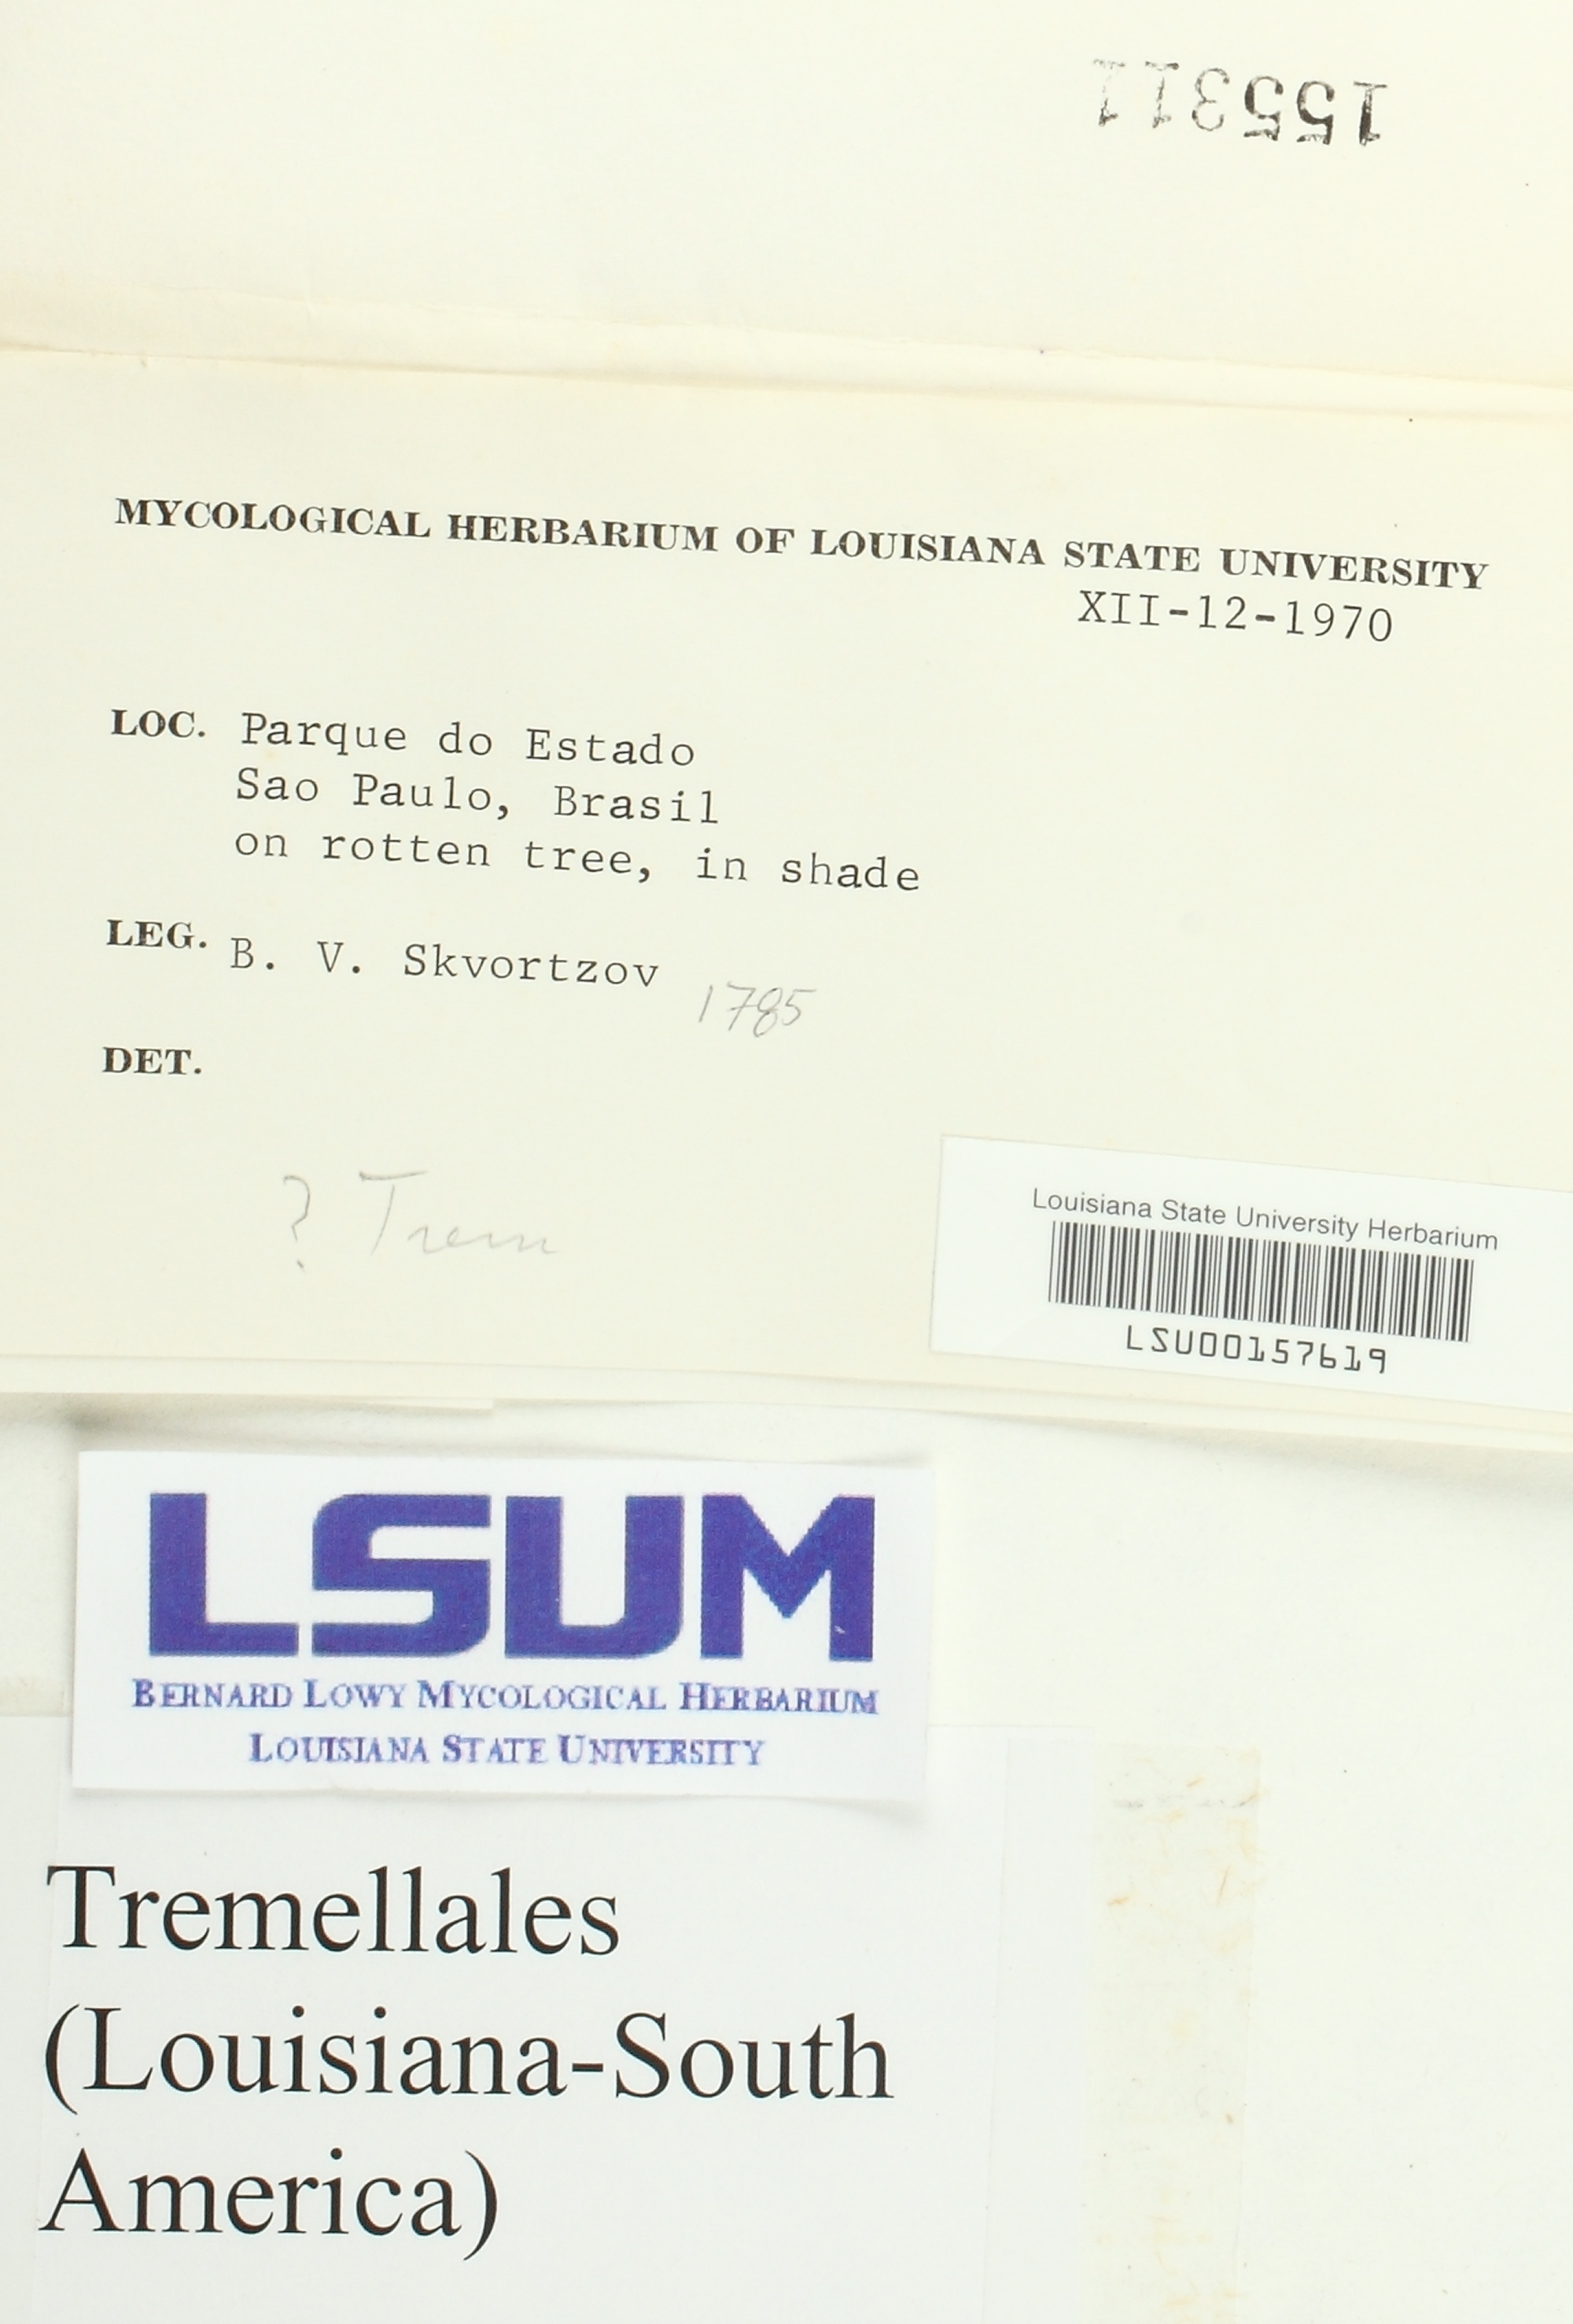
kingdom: Fungi
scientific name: Fungi
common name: Fungi
